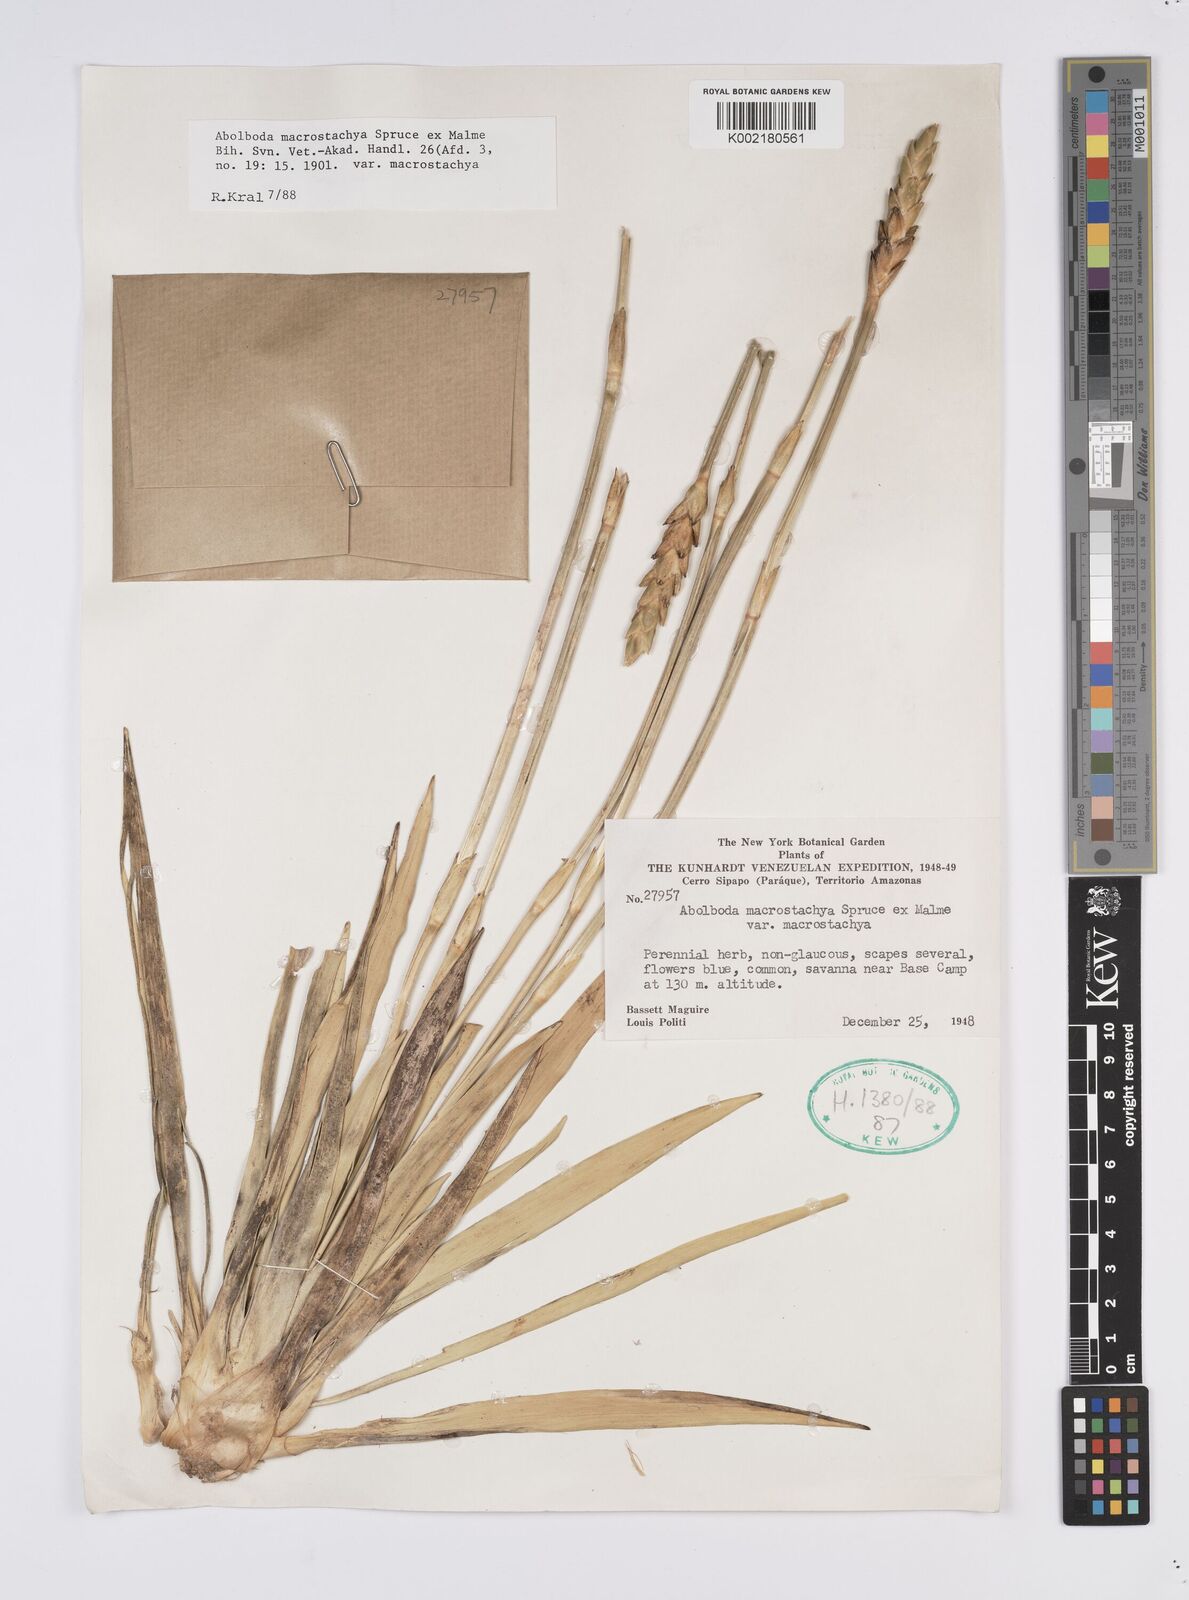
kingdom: Plantae
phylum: Tracheophyta
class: Liliopsida
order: Poales
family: Xyridaceae
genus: Abolboda
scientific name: Abolboda macrostachya
